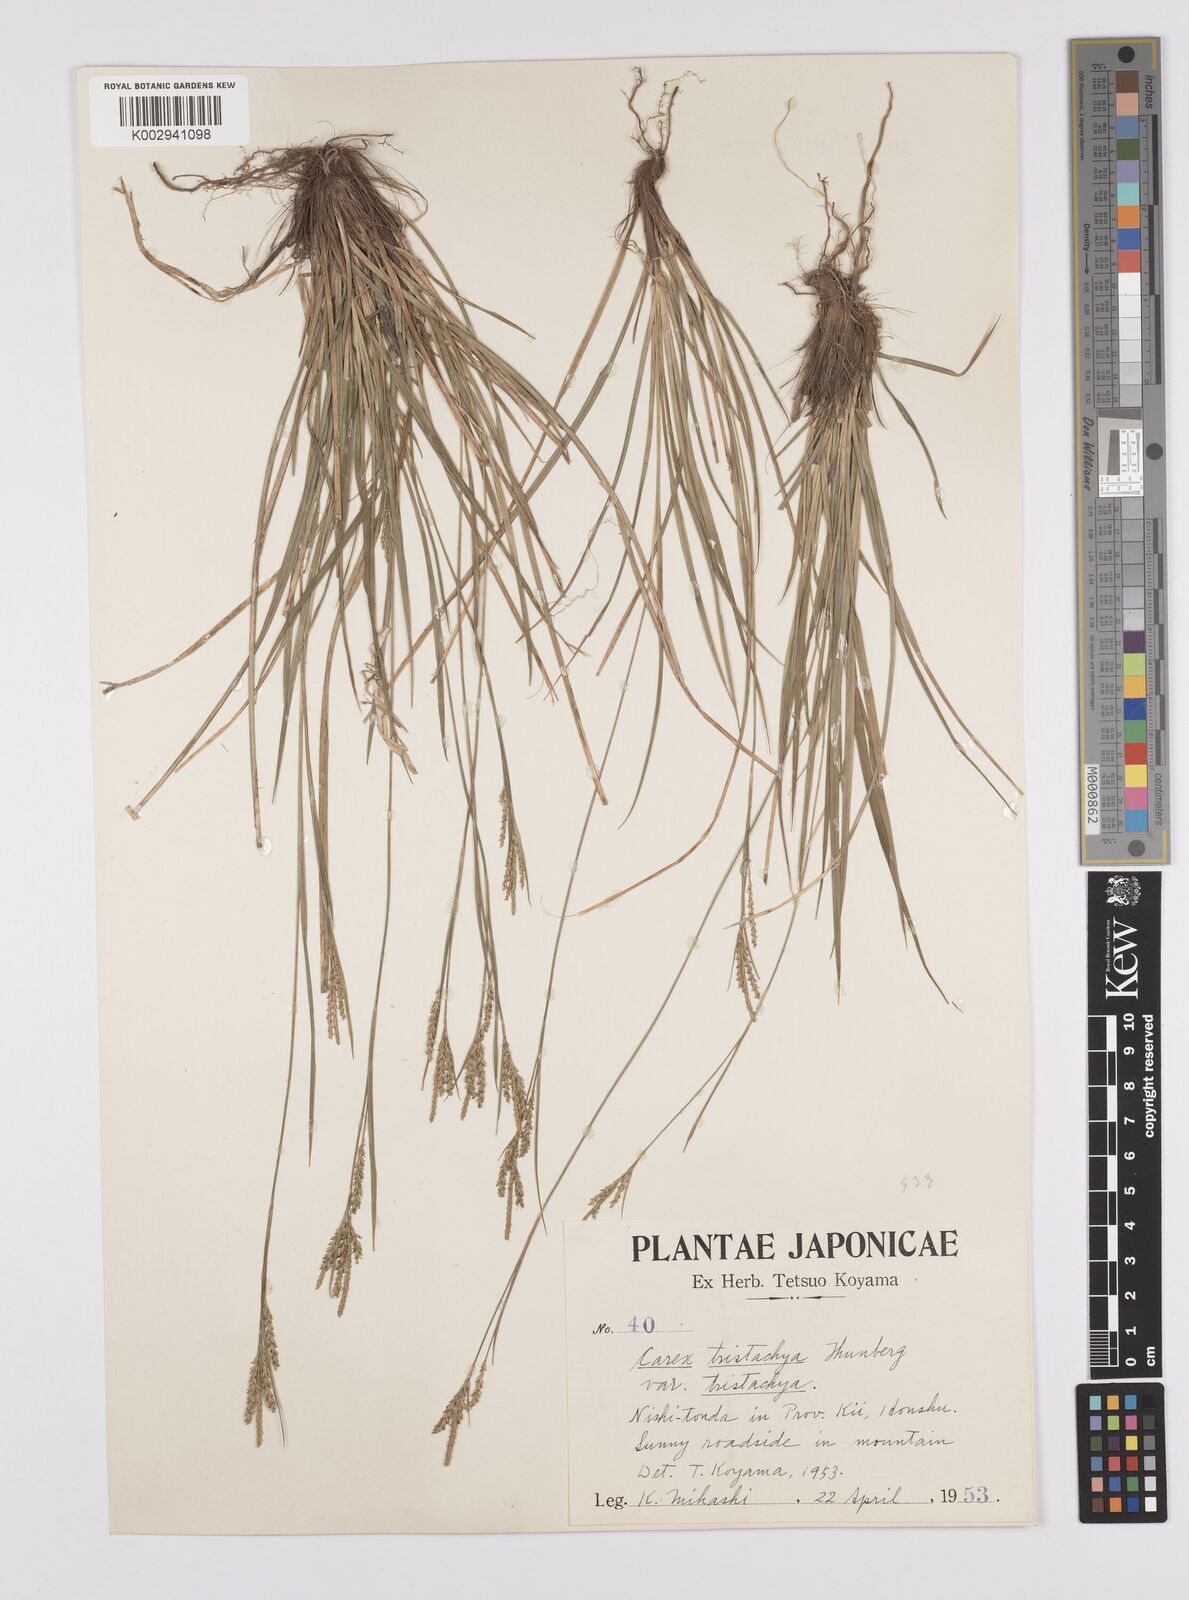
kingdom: Plantae
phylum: Tracheophyta
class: Liliopsida
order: Poales
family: Cyperaceae
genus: Carex
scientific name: Carex tristachya
